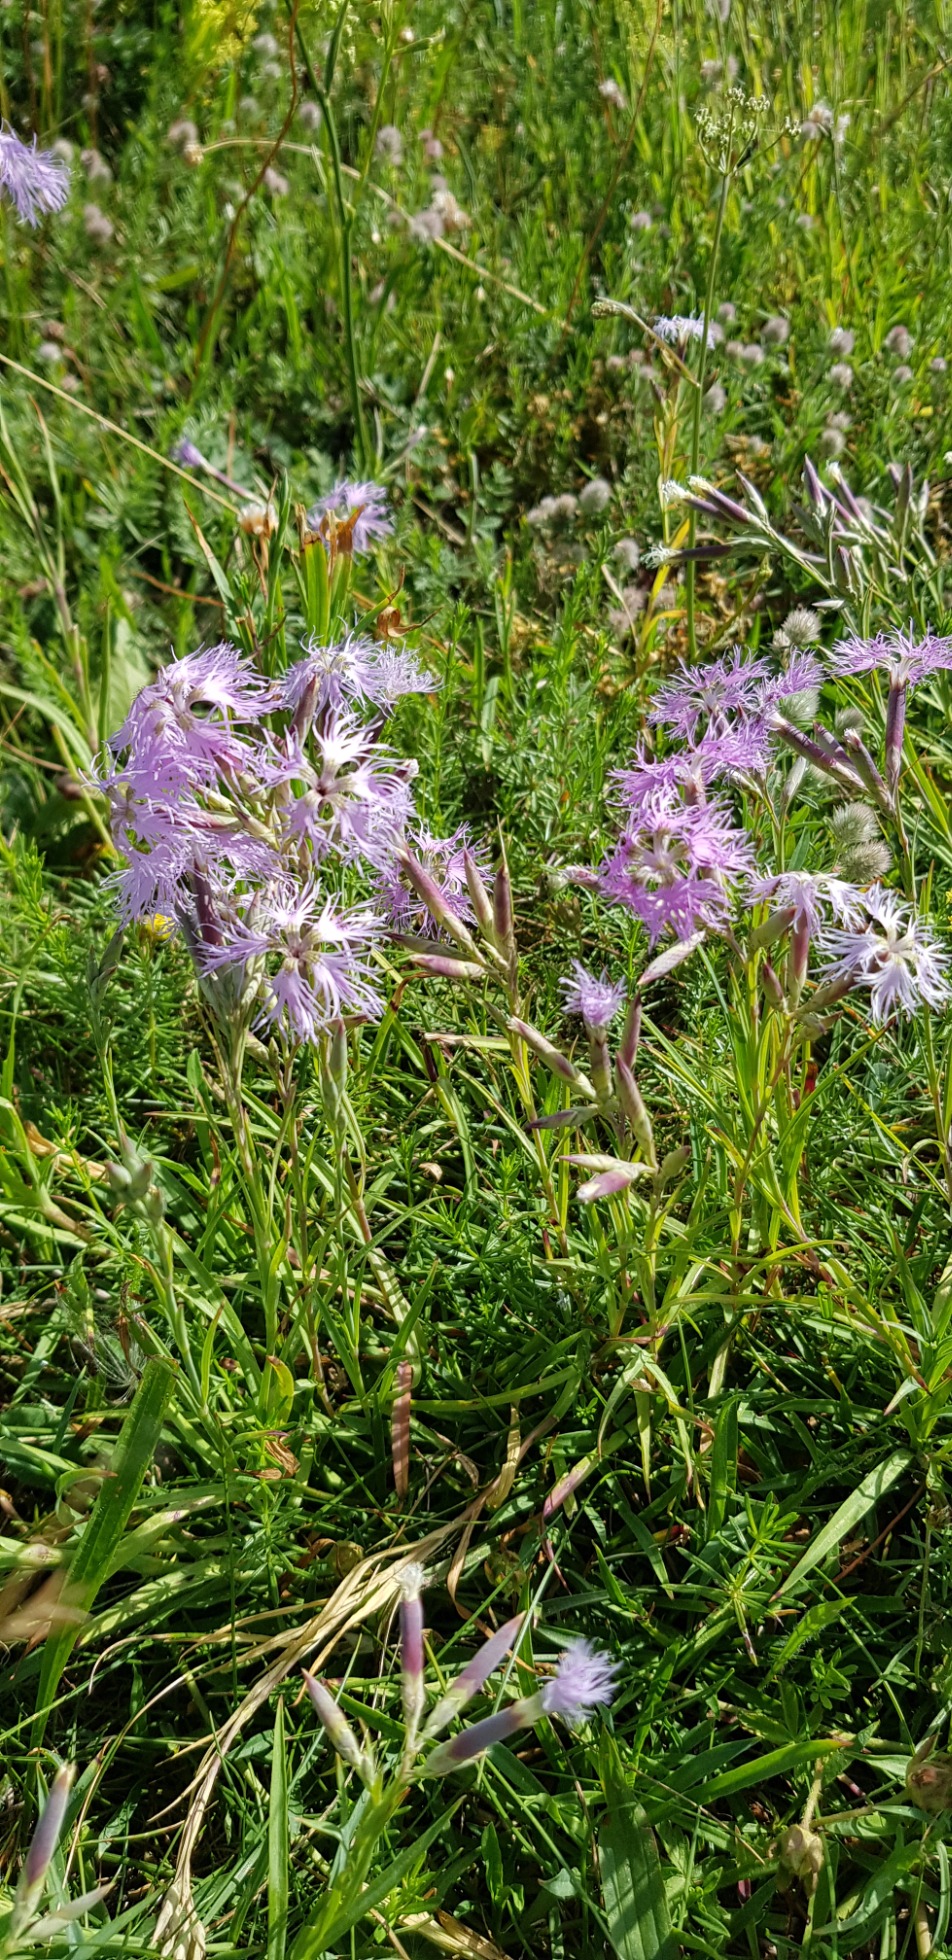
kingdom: Plantae
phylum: Tracheophyta
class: Magnoliopsida
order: Caryophyllales
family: Caryophyllaceae
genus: Dianthus
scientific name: Dianthus superbus
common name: Strand-nellike
